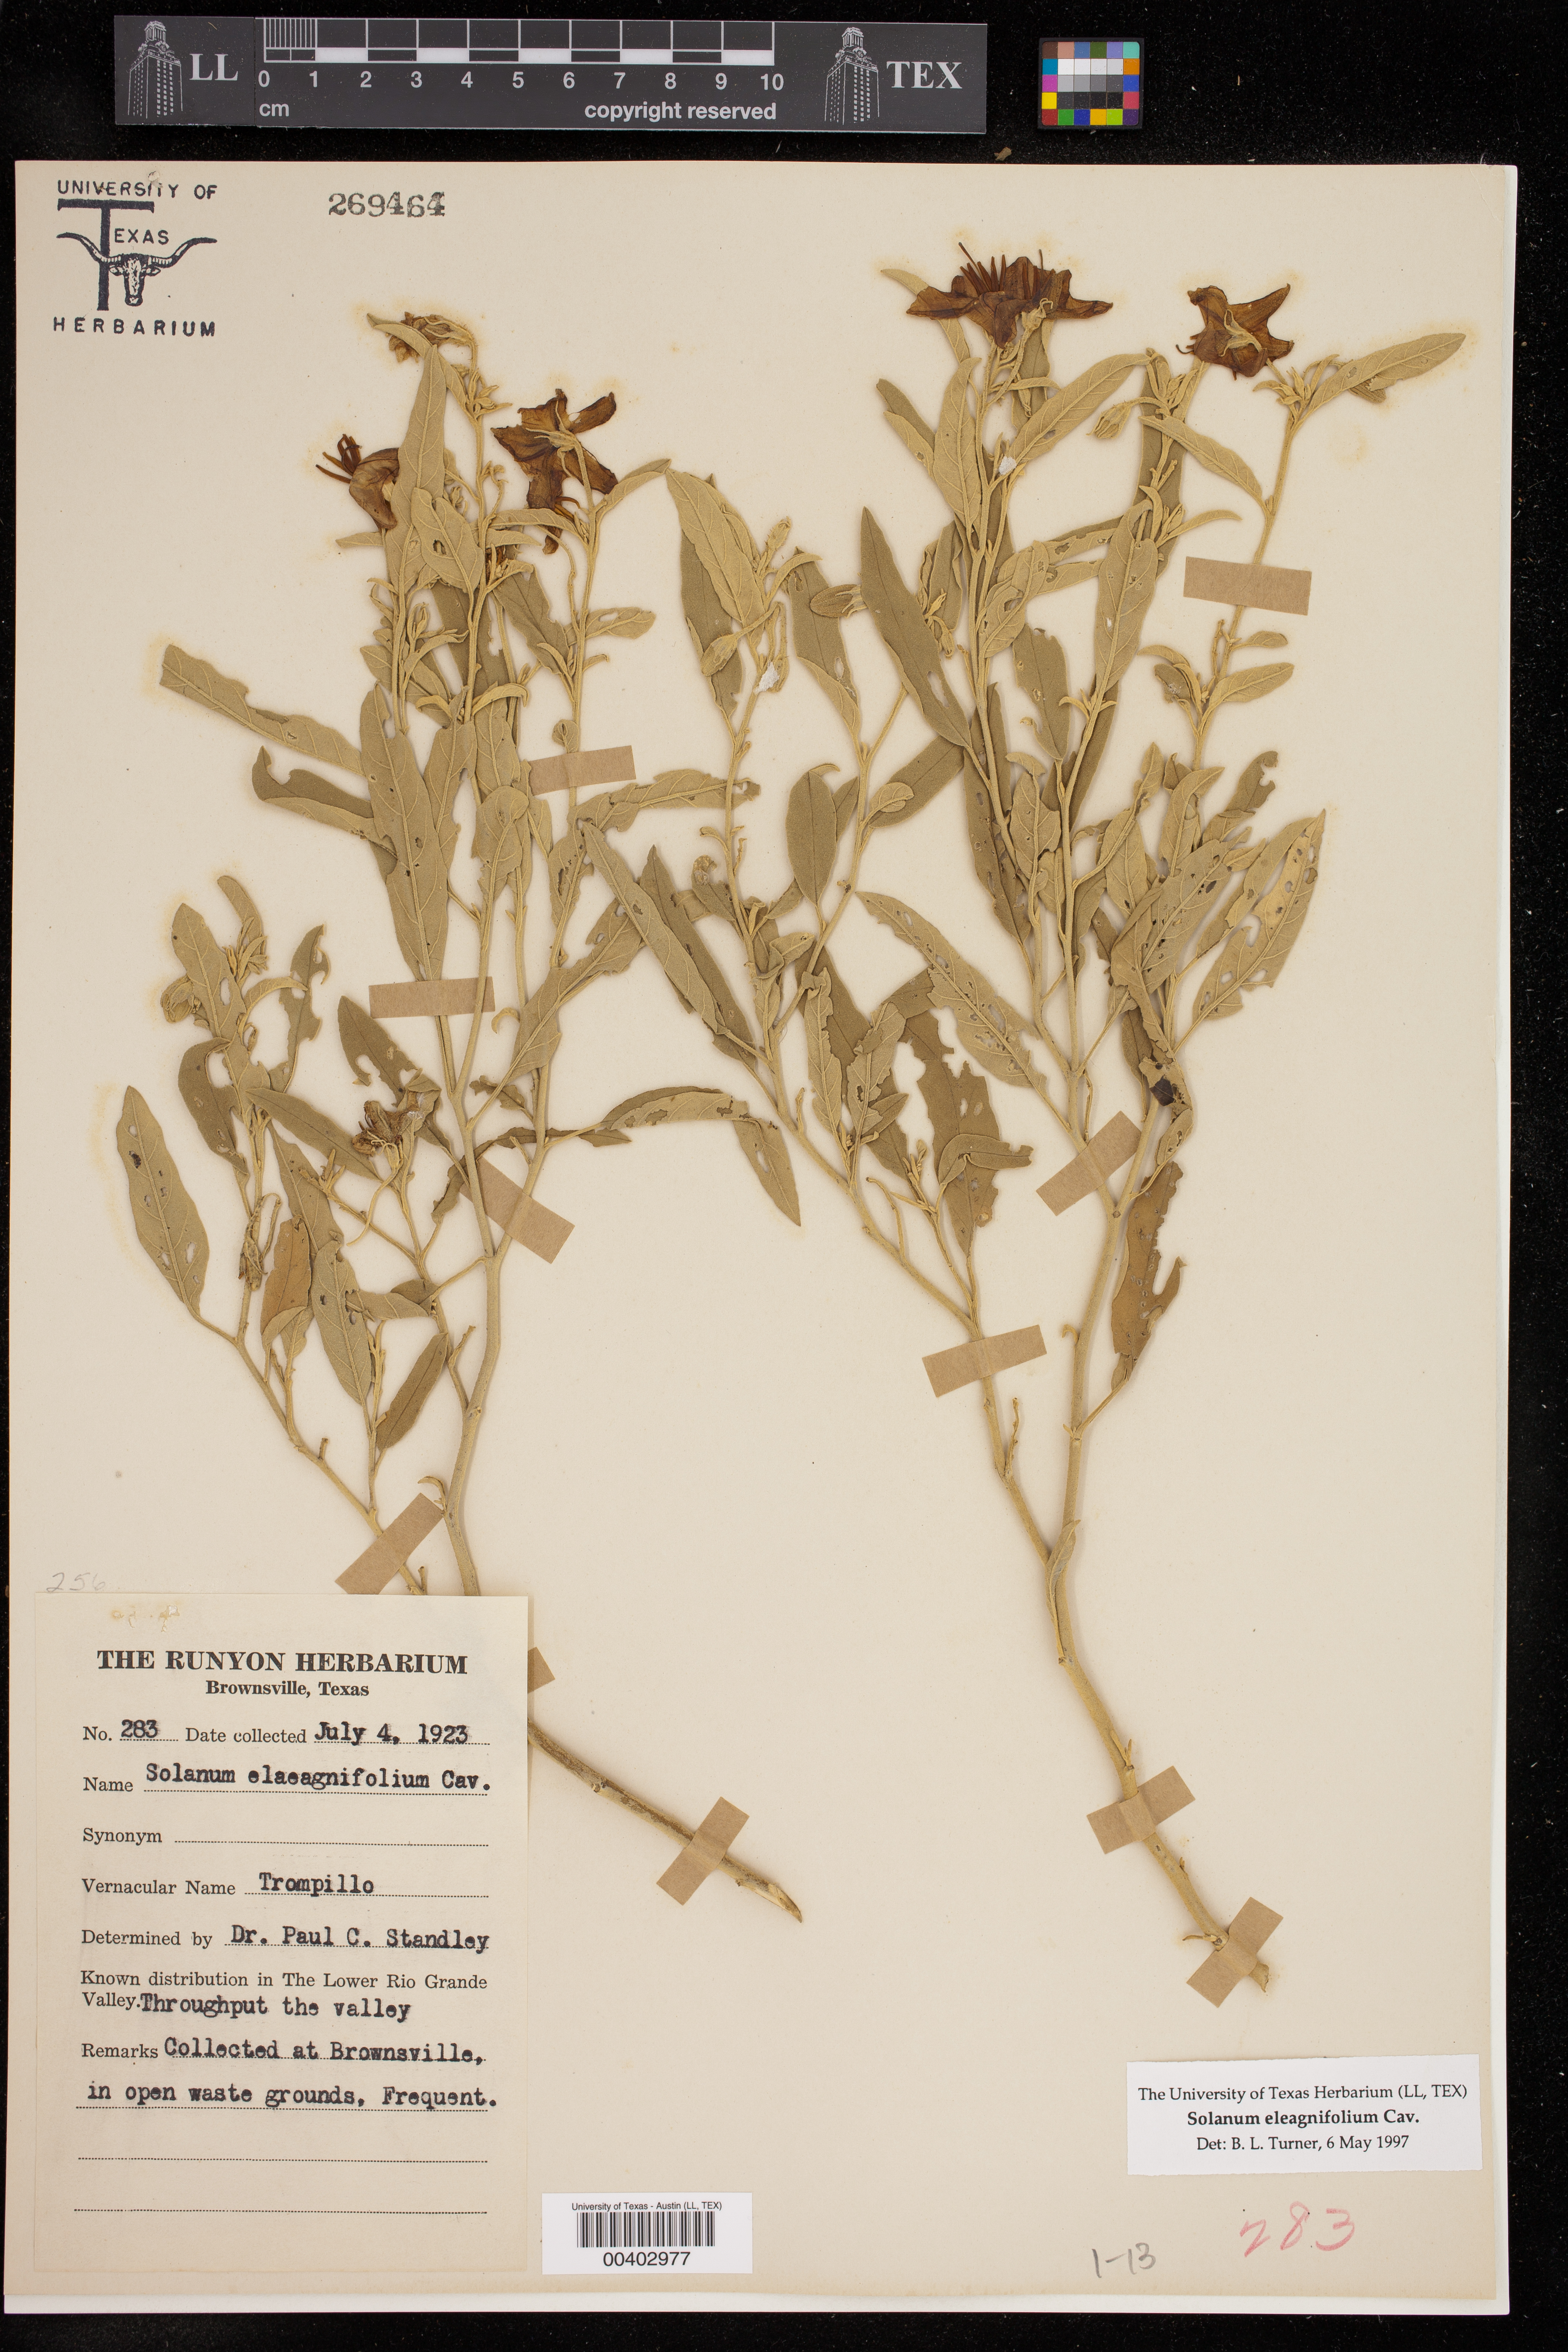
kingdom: Plantae
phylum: Tracheophyta
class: Magnoliopsida
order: Solanales
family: Solanaceae
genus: Solanum
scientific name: Solanum elaeagnifolium
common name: Silverleaf nightshade
